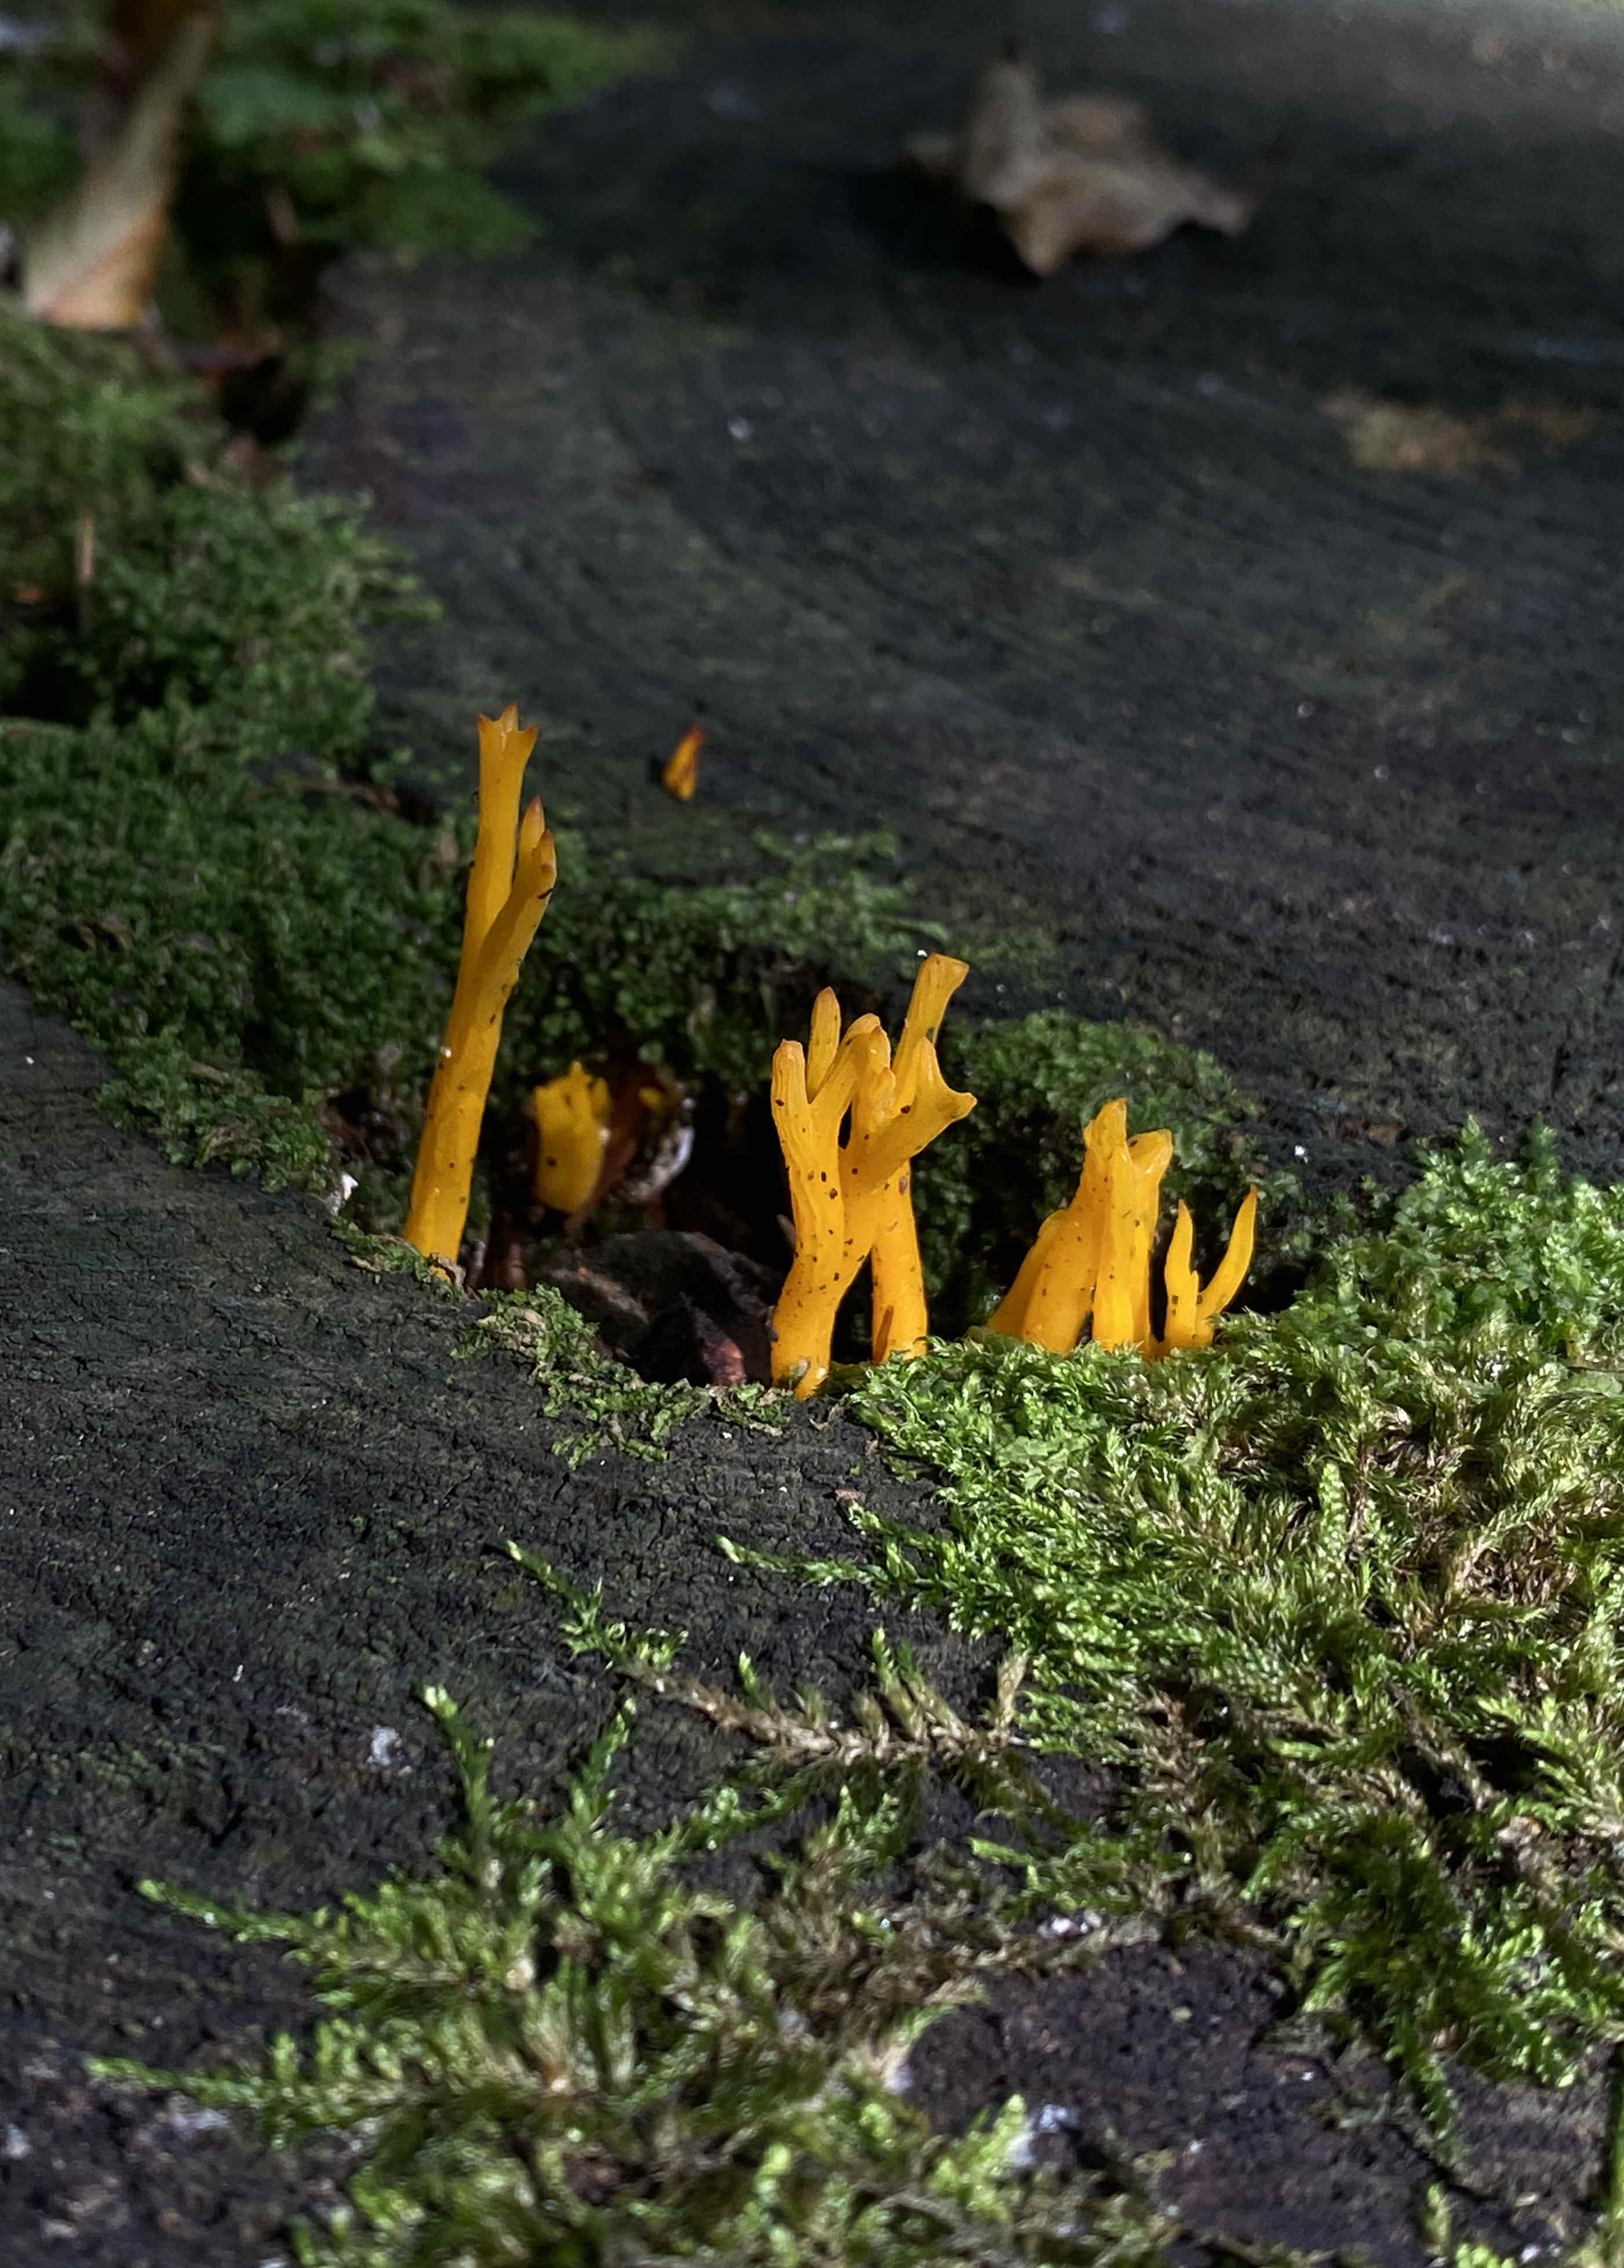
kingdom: Fungi
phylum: Basidiomycota
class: Dacrymycetes
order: Dacrymycetales
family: Dacrymycetaceae
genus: Calocera
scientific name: Calocera viscosa
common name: almindelig guldgaffel
